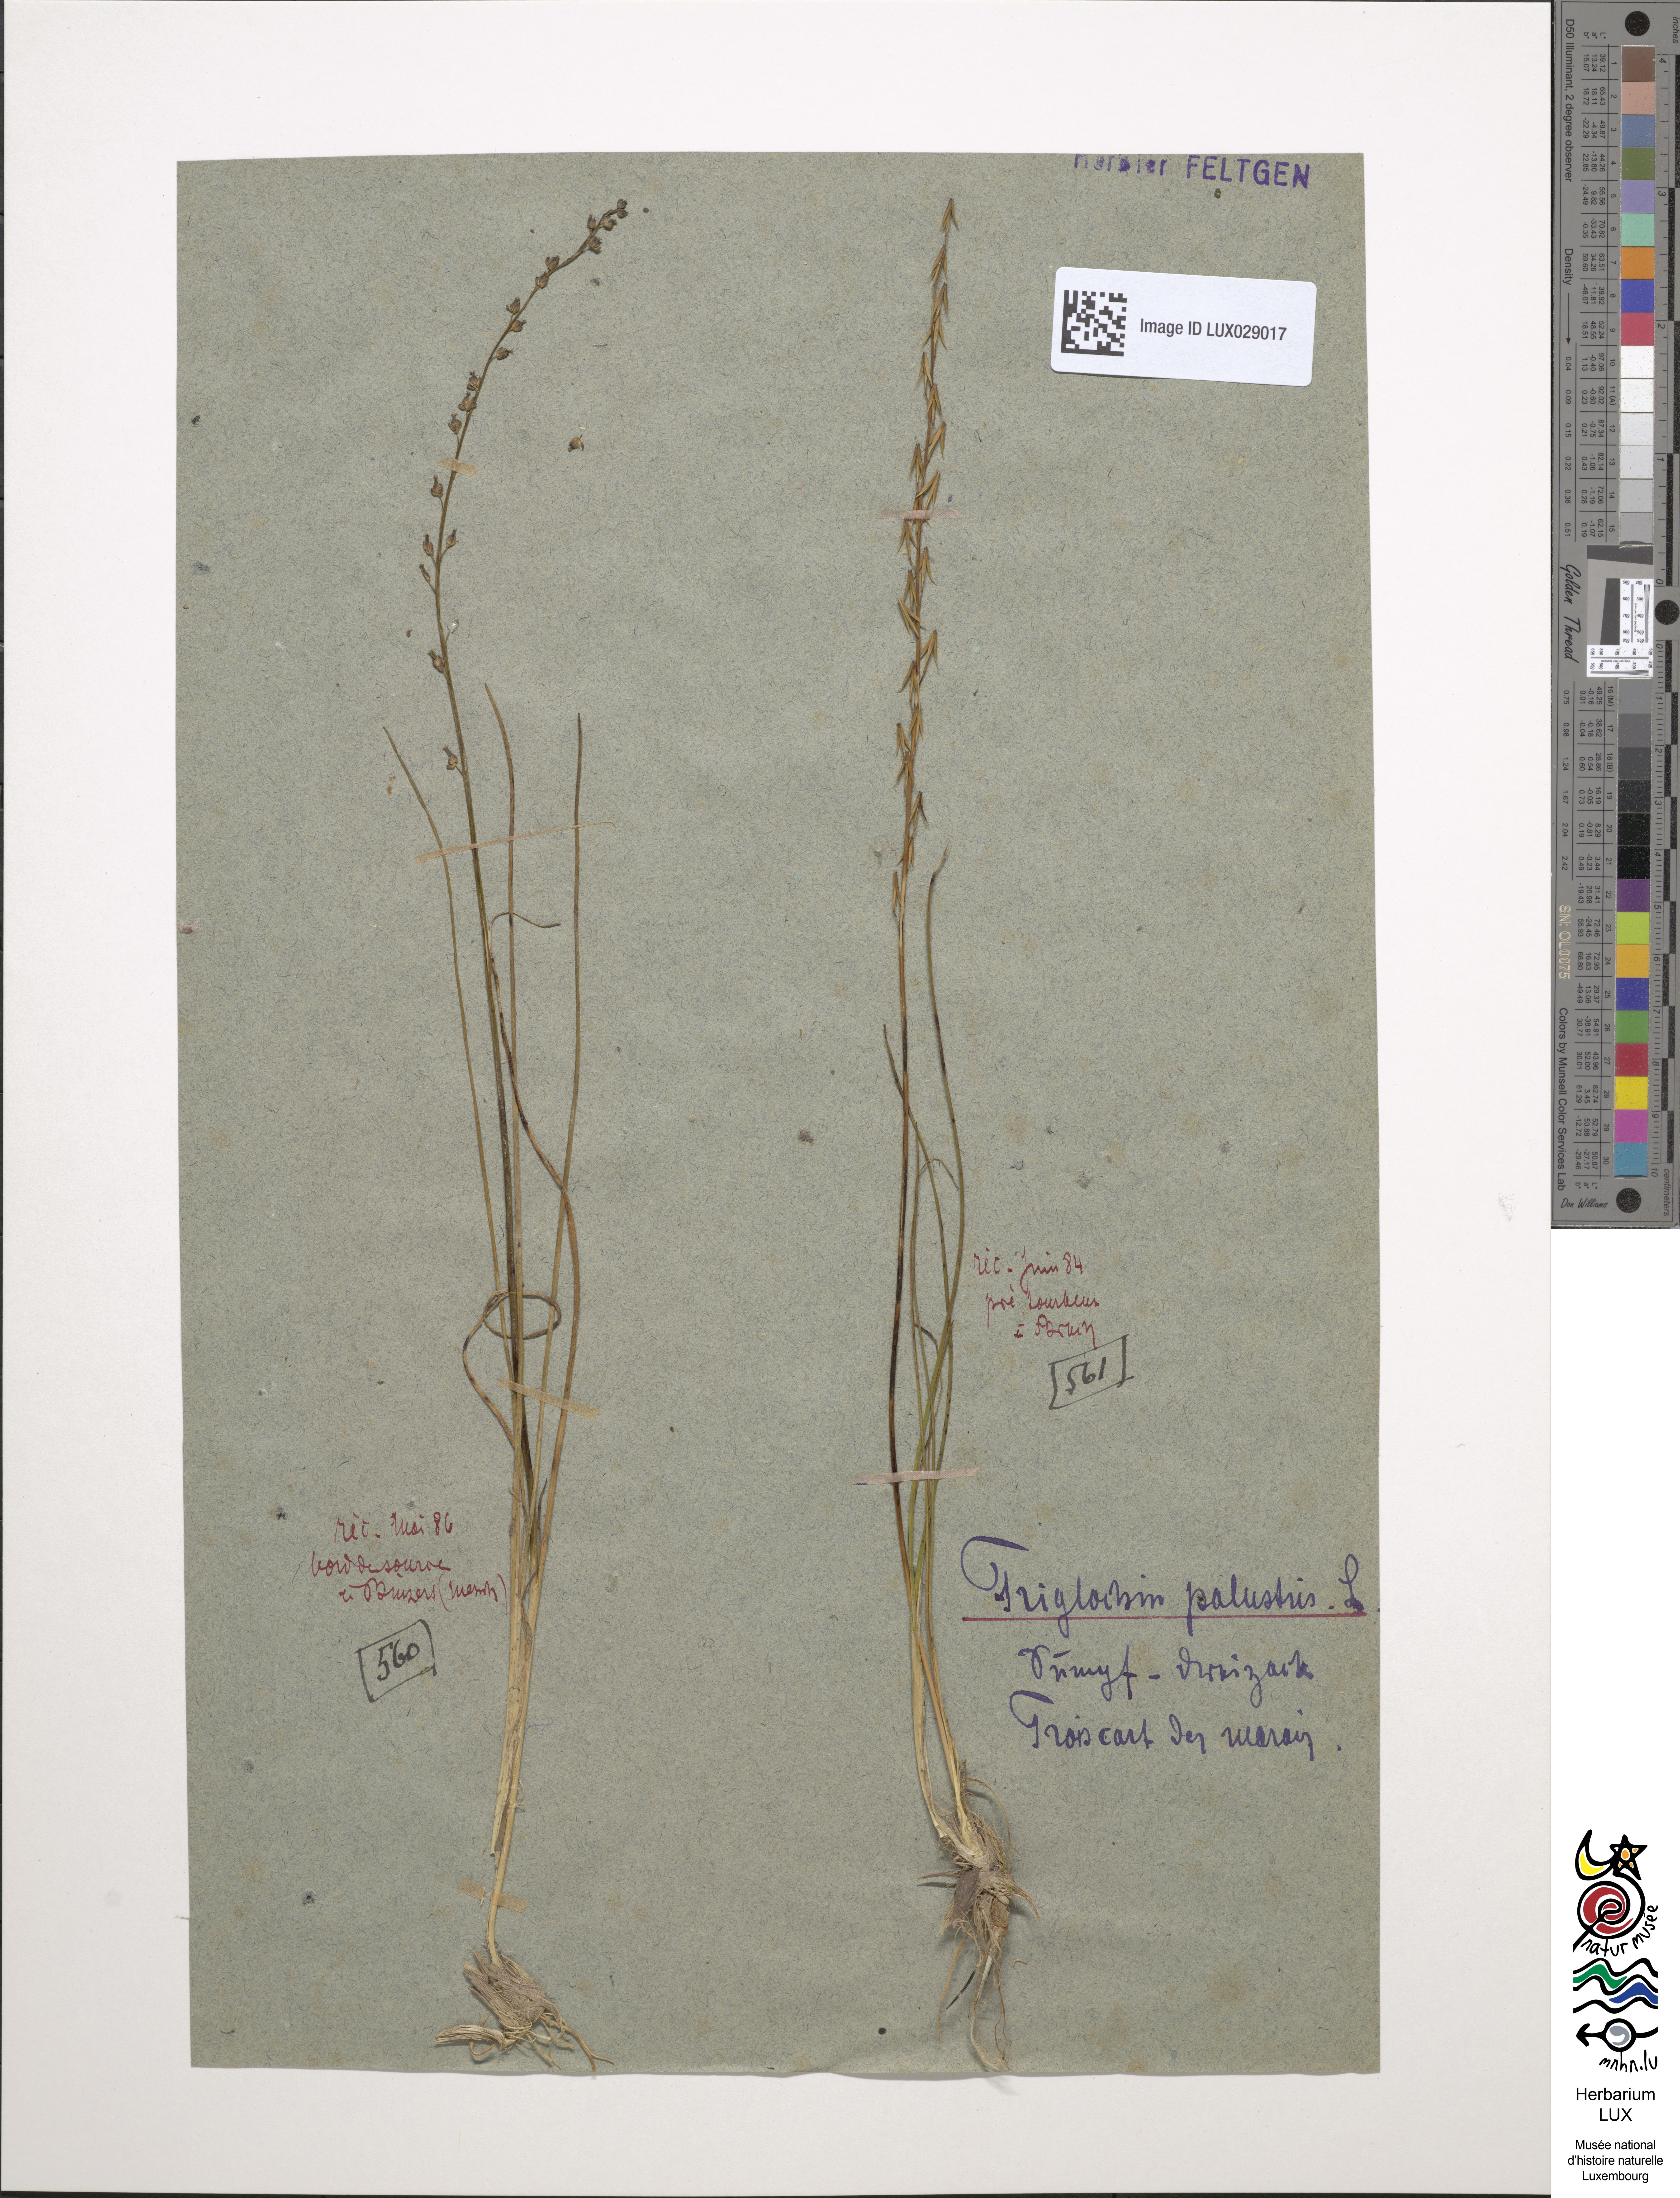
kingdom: Plantae
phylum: Tracheophyta
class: Liliopsida
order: Alismatales
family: Juncaginaceae
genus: Triglochin
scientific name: Triglochin palustris
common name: Marsh arrowgrass
